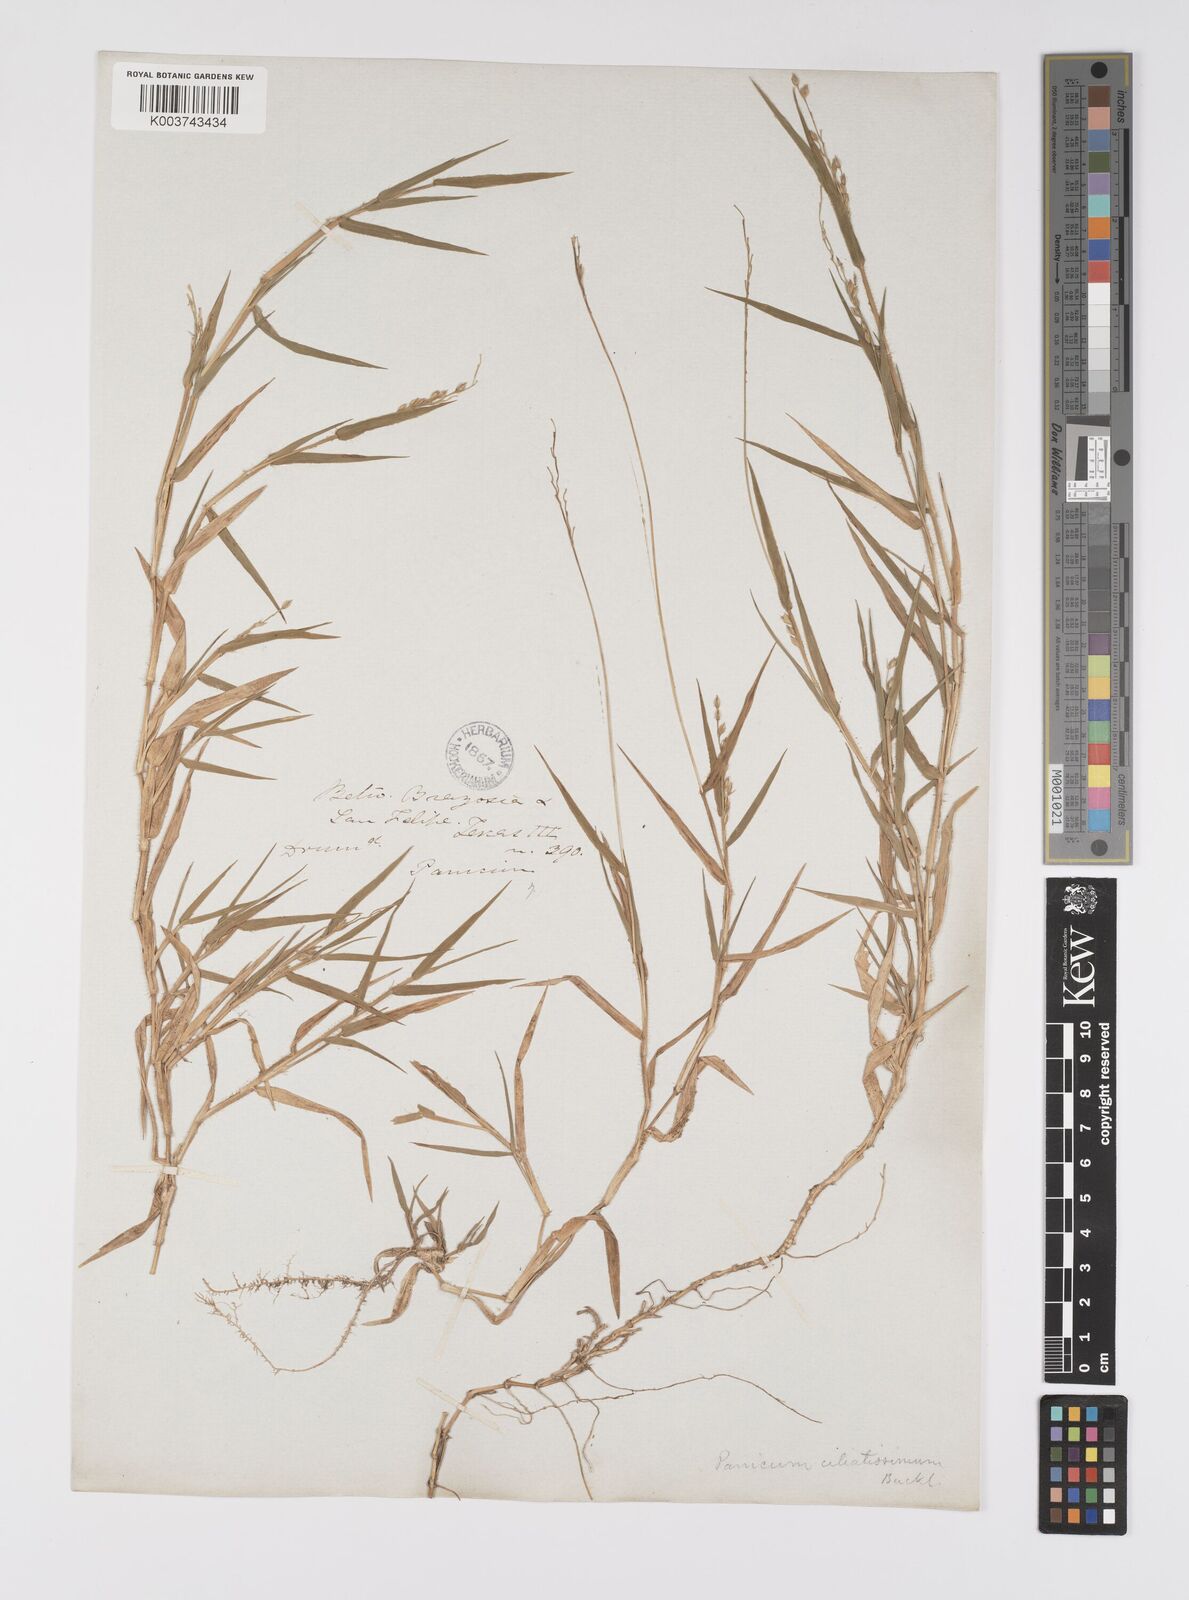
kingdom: Plantae
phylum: Tracheophyta
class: Liliopsida
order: Poales
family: Poaceae
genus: Urochloa
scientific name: Urochloa ciliatissima
